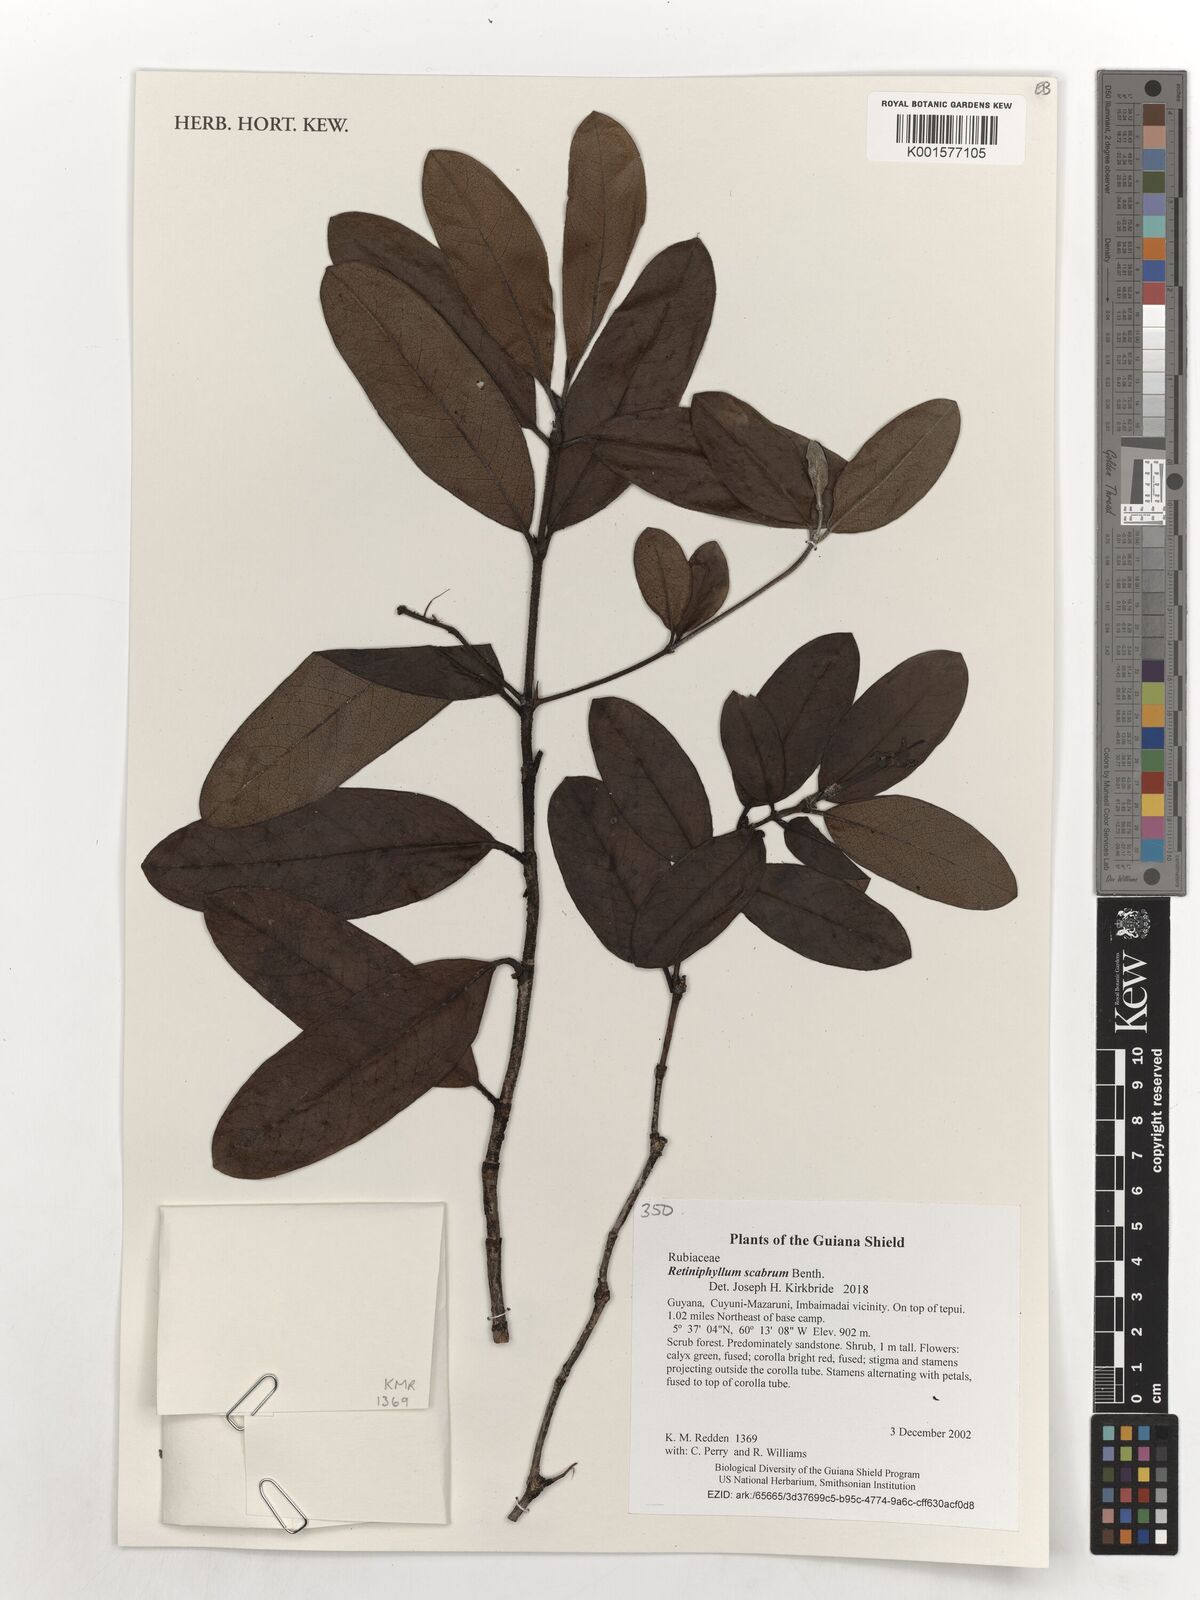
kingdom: Plantae
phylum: Tracheophyta
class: Magnoliopsida
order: Gentianales
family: Rubiaceae
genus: Retiniphyllum
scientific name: Retiniphyllum scabrum
